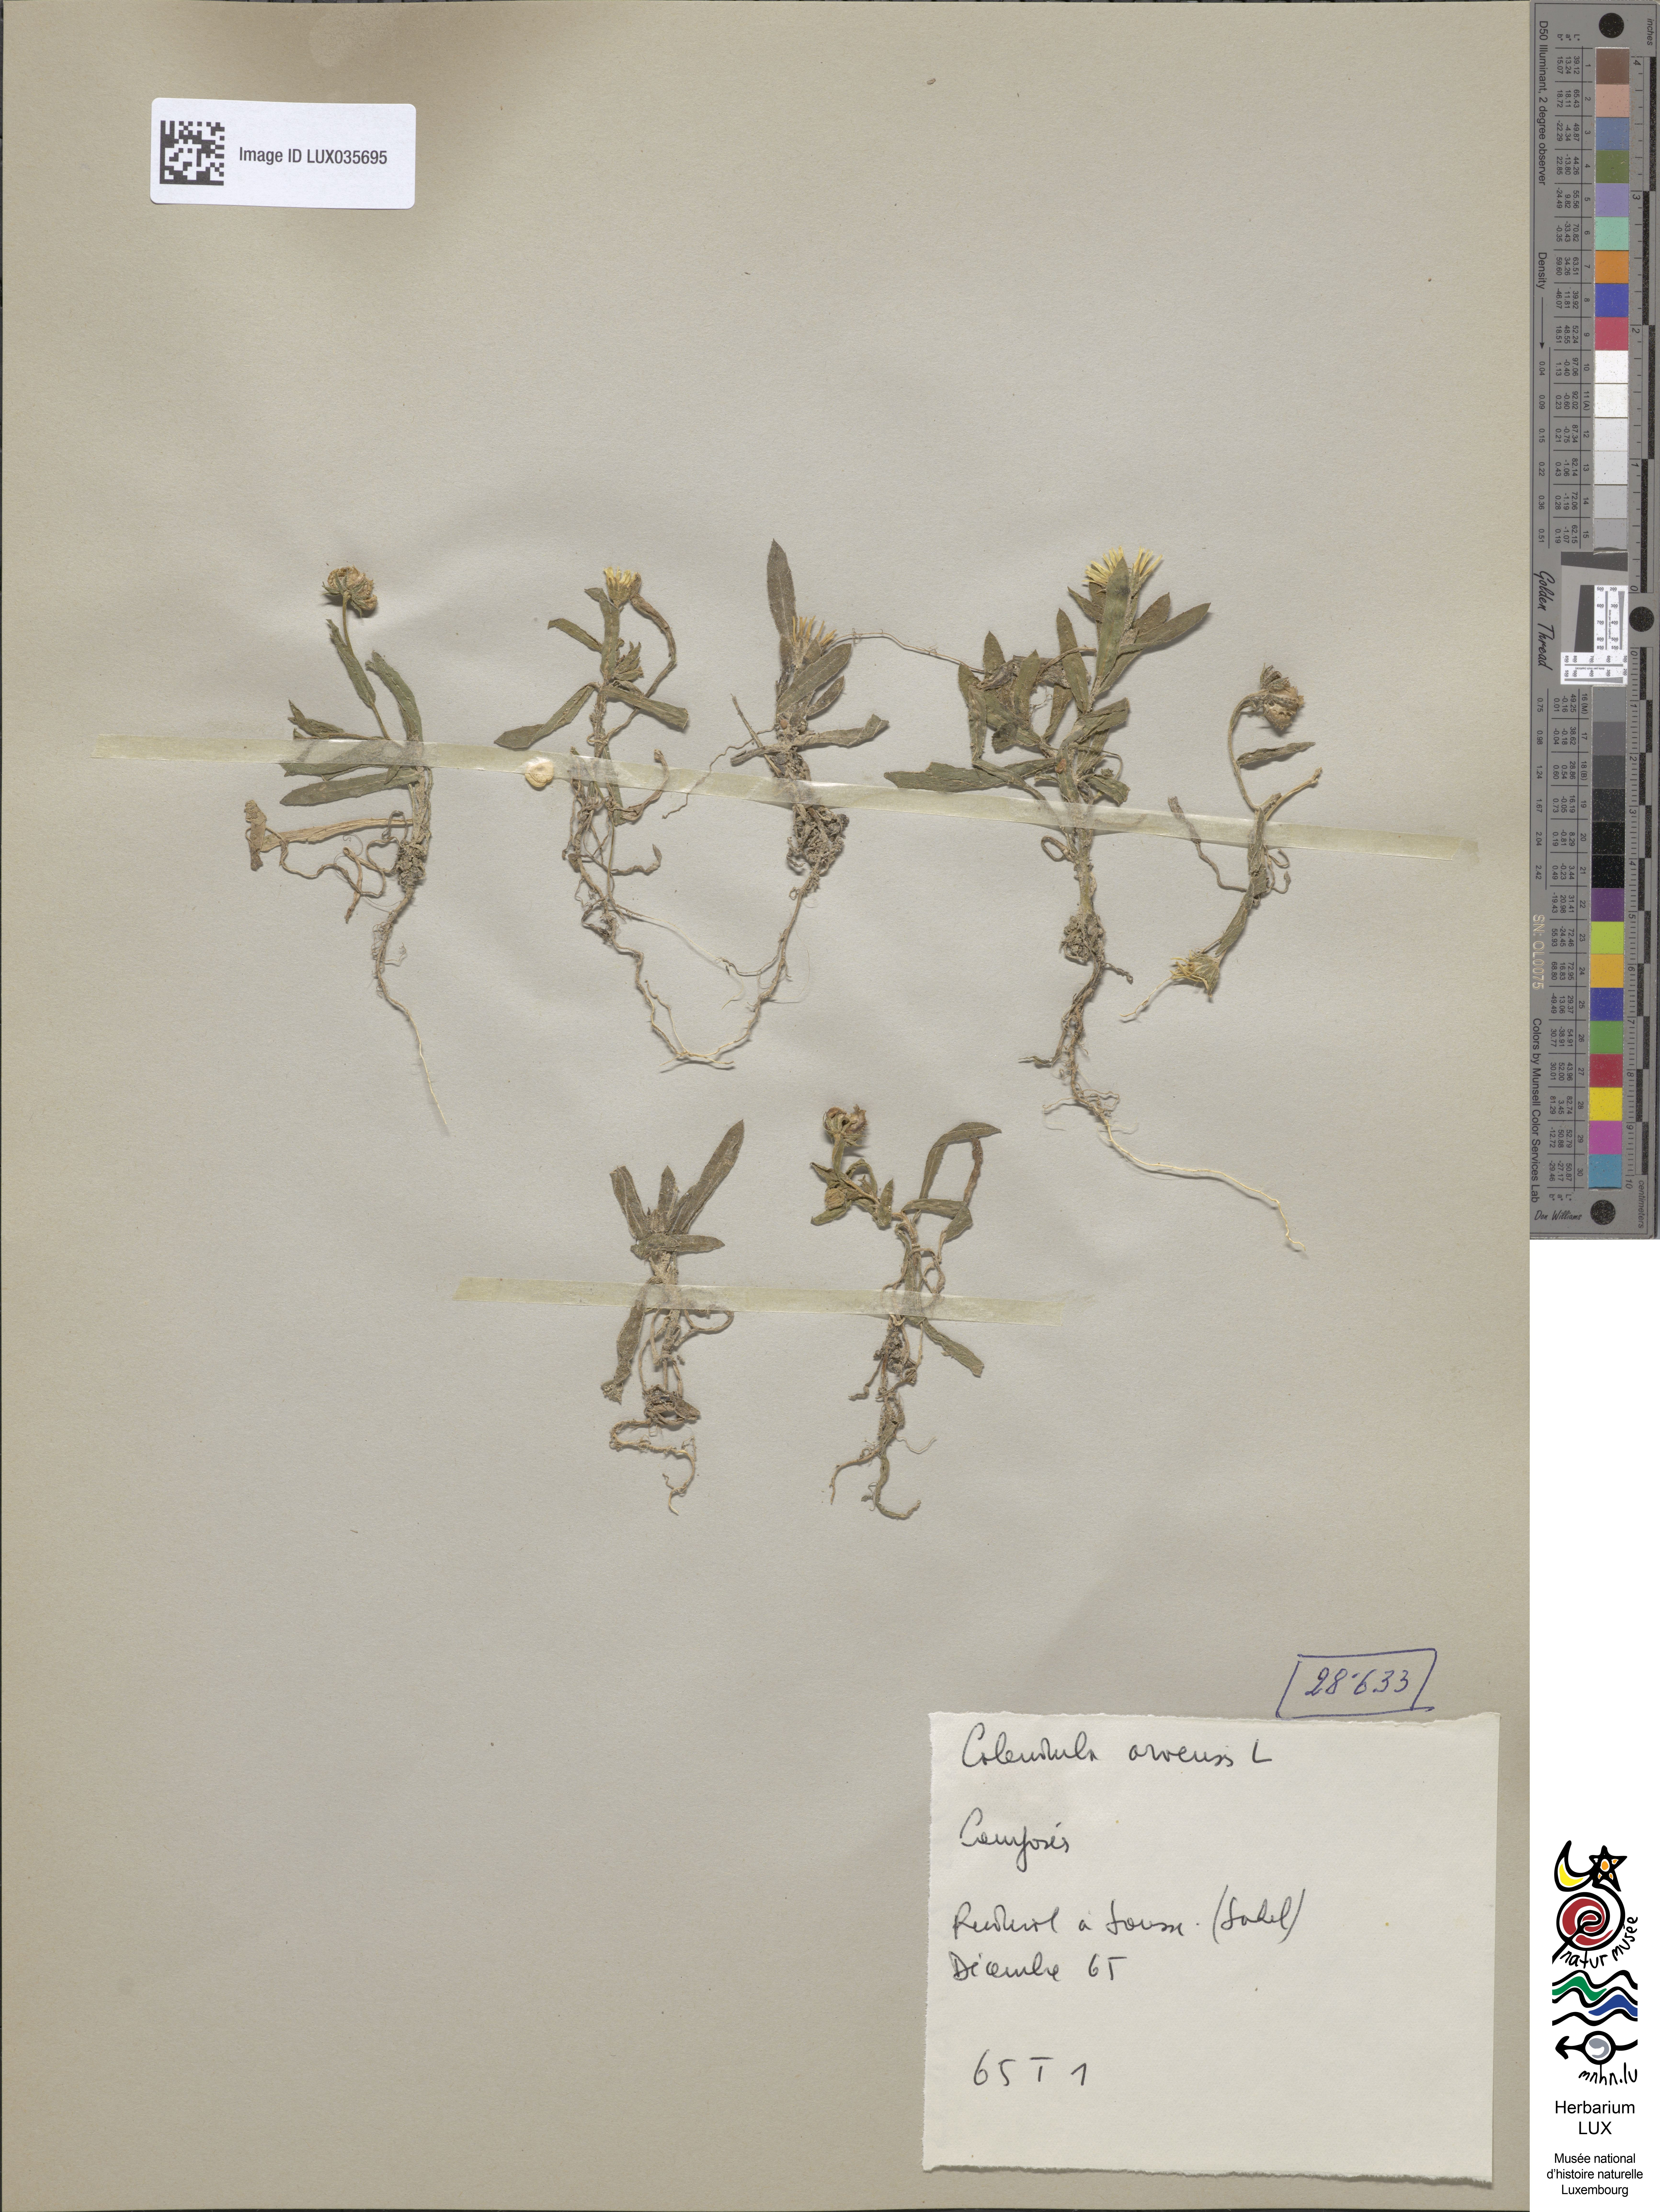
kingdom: Plantae
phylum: Tracheophyta
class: Magnoliopsida
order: Asterales
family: Asteraceae
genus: Calendula
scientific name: Calendula arvensis
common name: Field marigold
